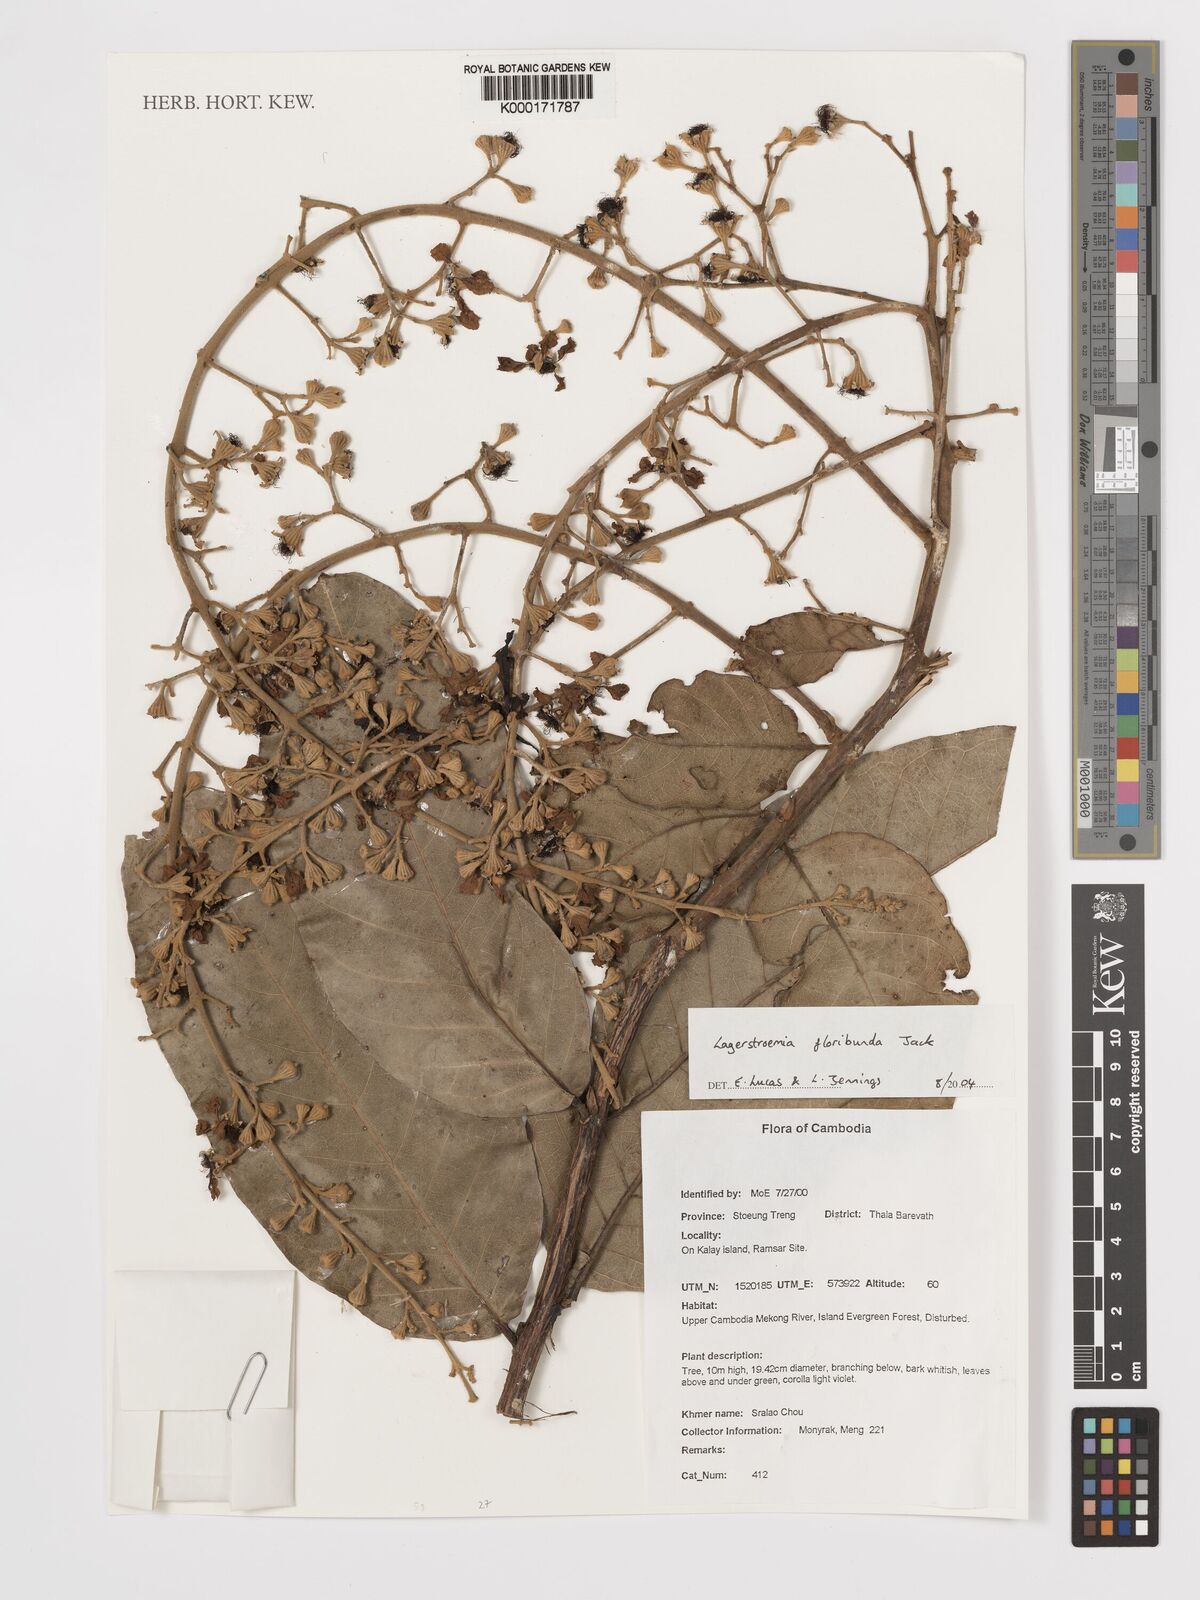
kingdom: Plantae
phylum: Tracheophyta
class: Magnoliopsida
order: Myrtales
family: Lythraceae
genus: Lagerstroemia
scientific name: Lagerstroemia floribunda
